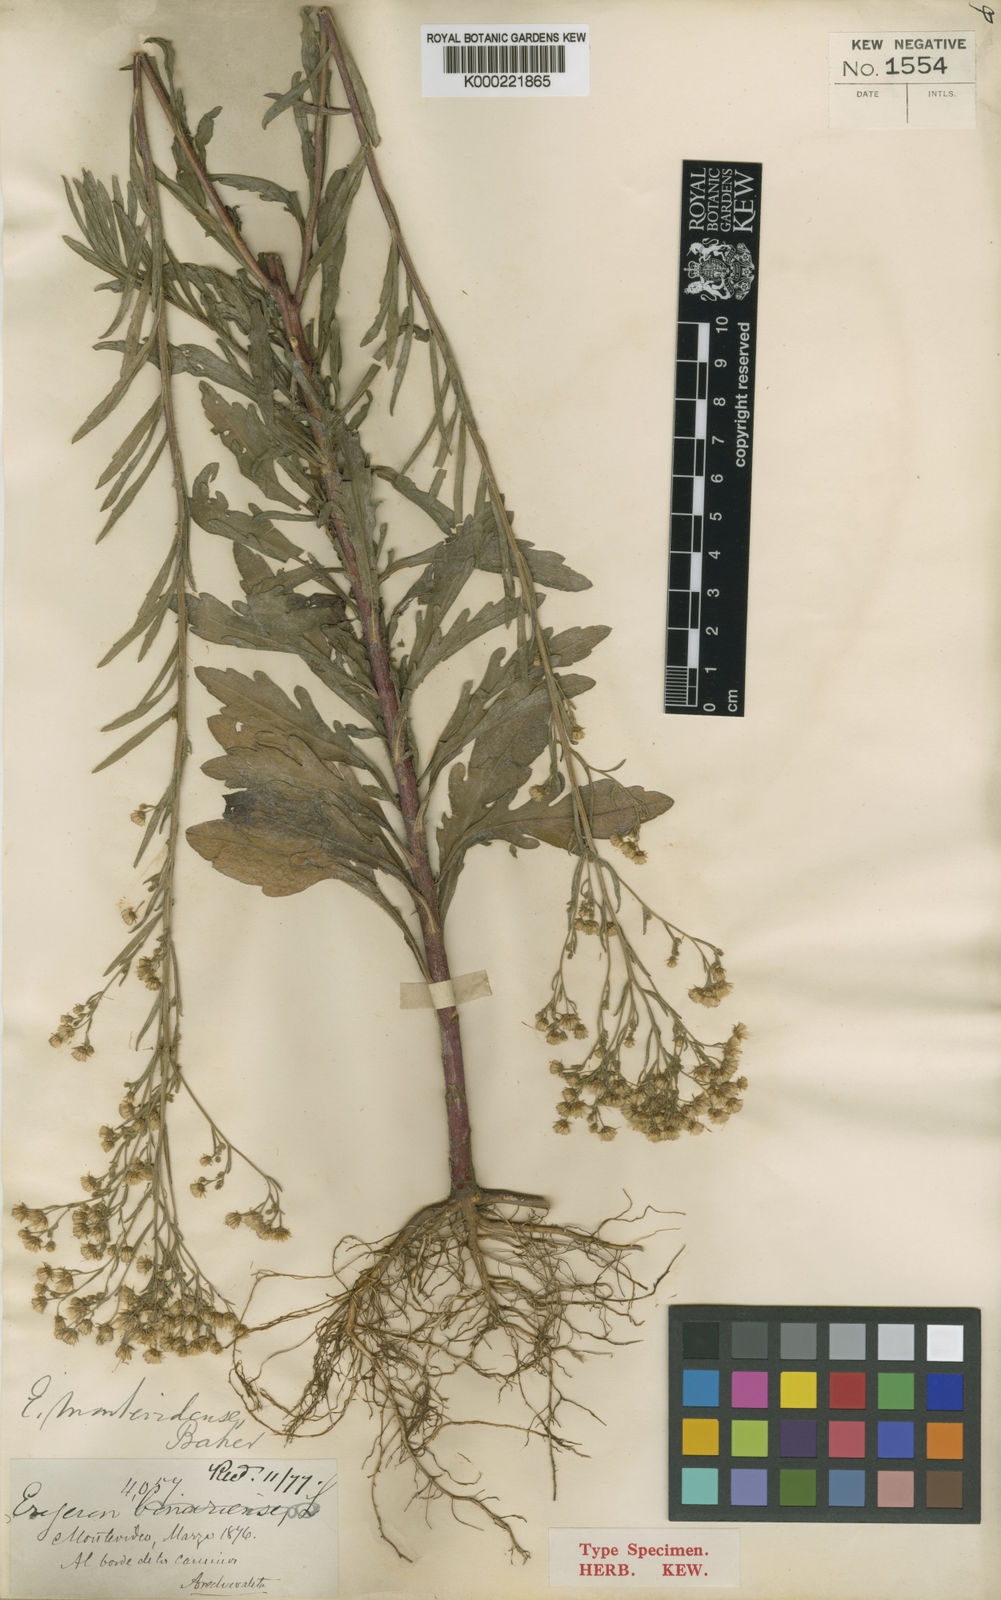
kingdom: Plantae
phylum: Tracheophyta
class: Magnoliopsida
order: Asterales
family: Asteraceae
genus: Erigeron
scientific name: Erigeron blakei
